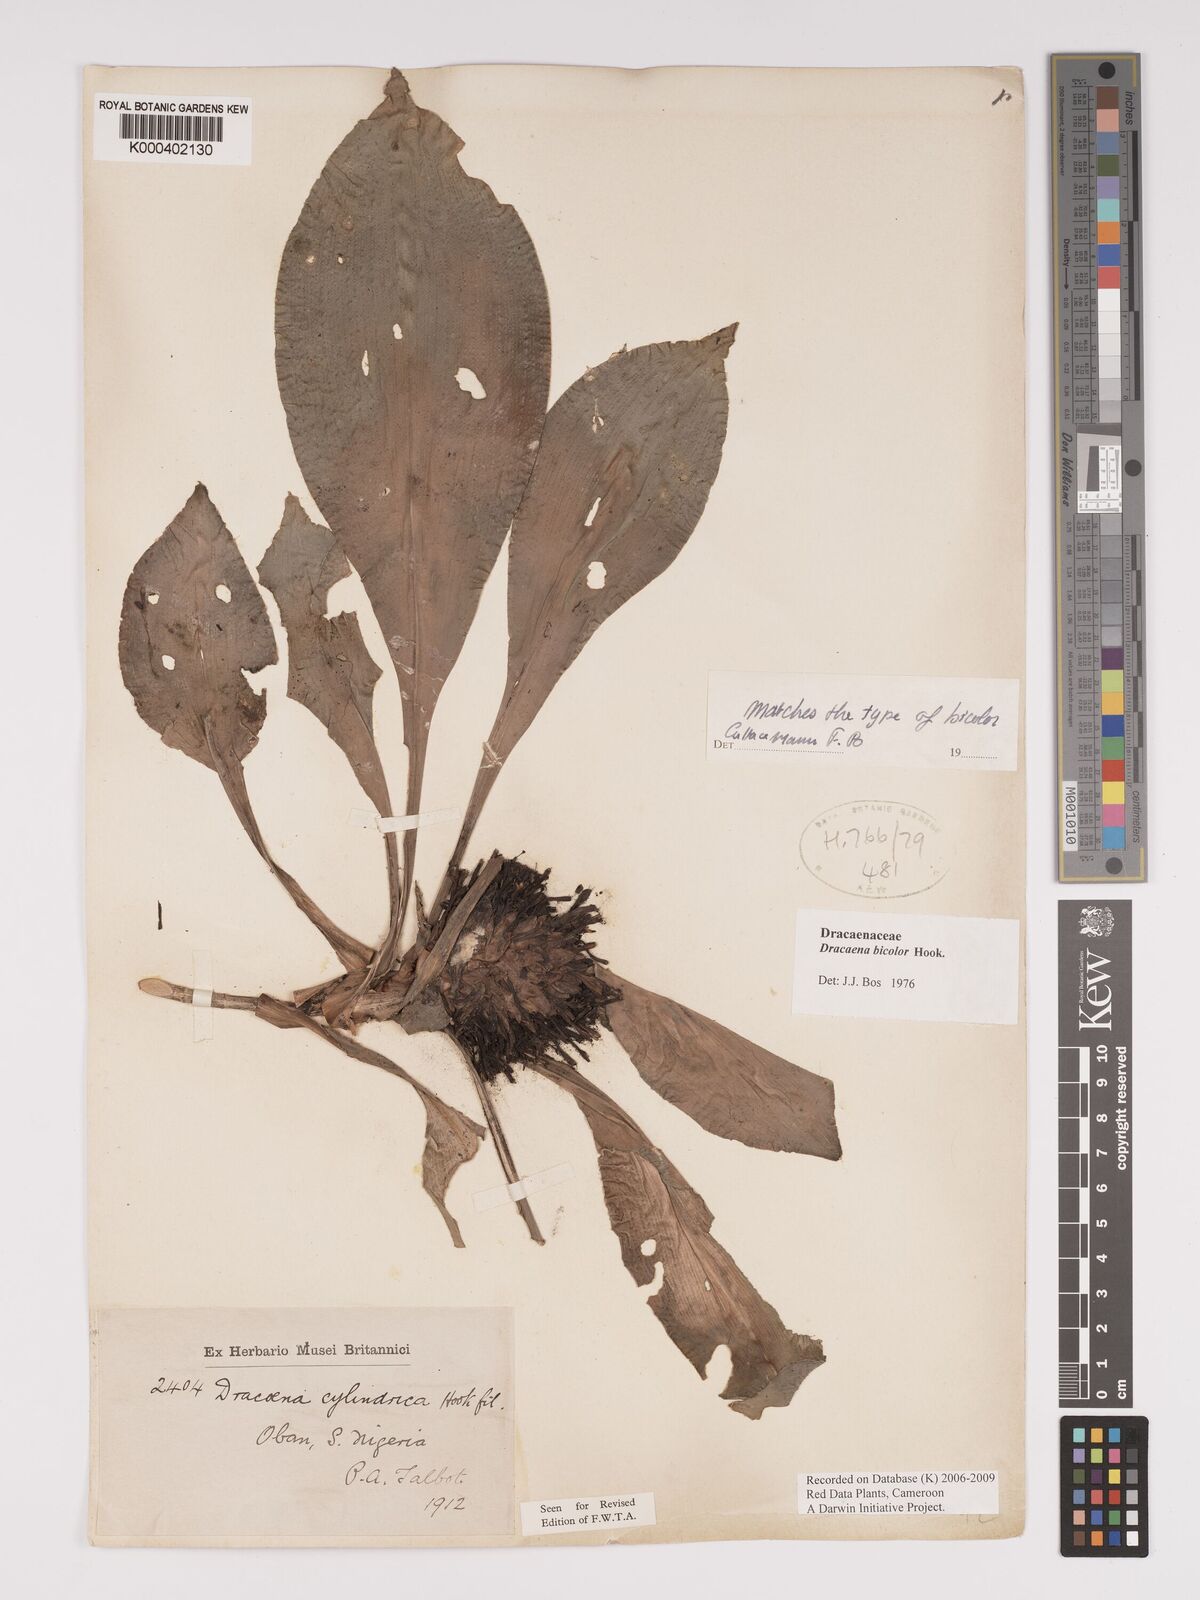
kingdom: Plantae
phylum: Tracheophyta
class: Liliopsida
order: Asparagales
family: Asparagaceae
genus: Dracaena
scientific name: Dracaena bicolor
